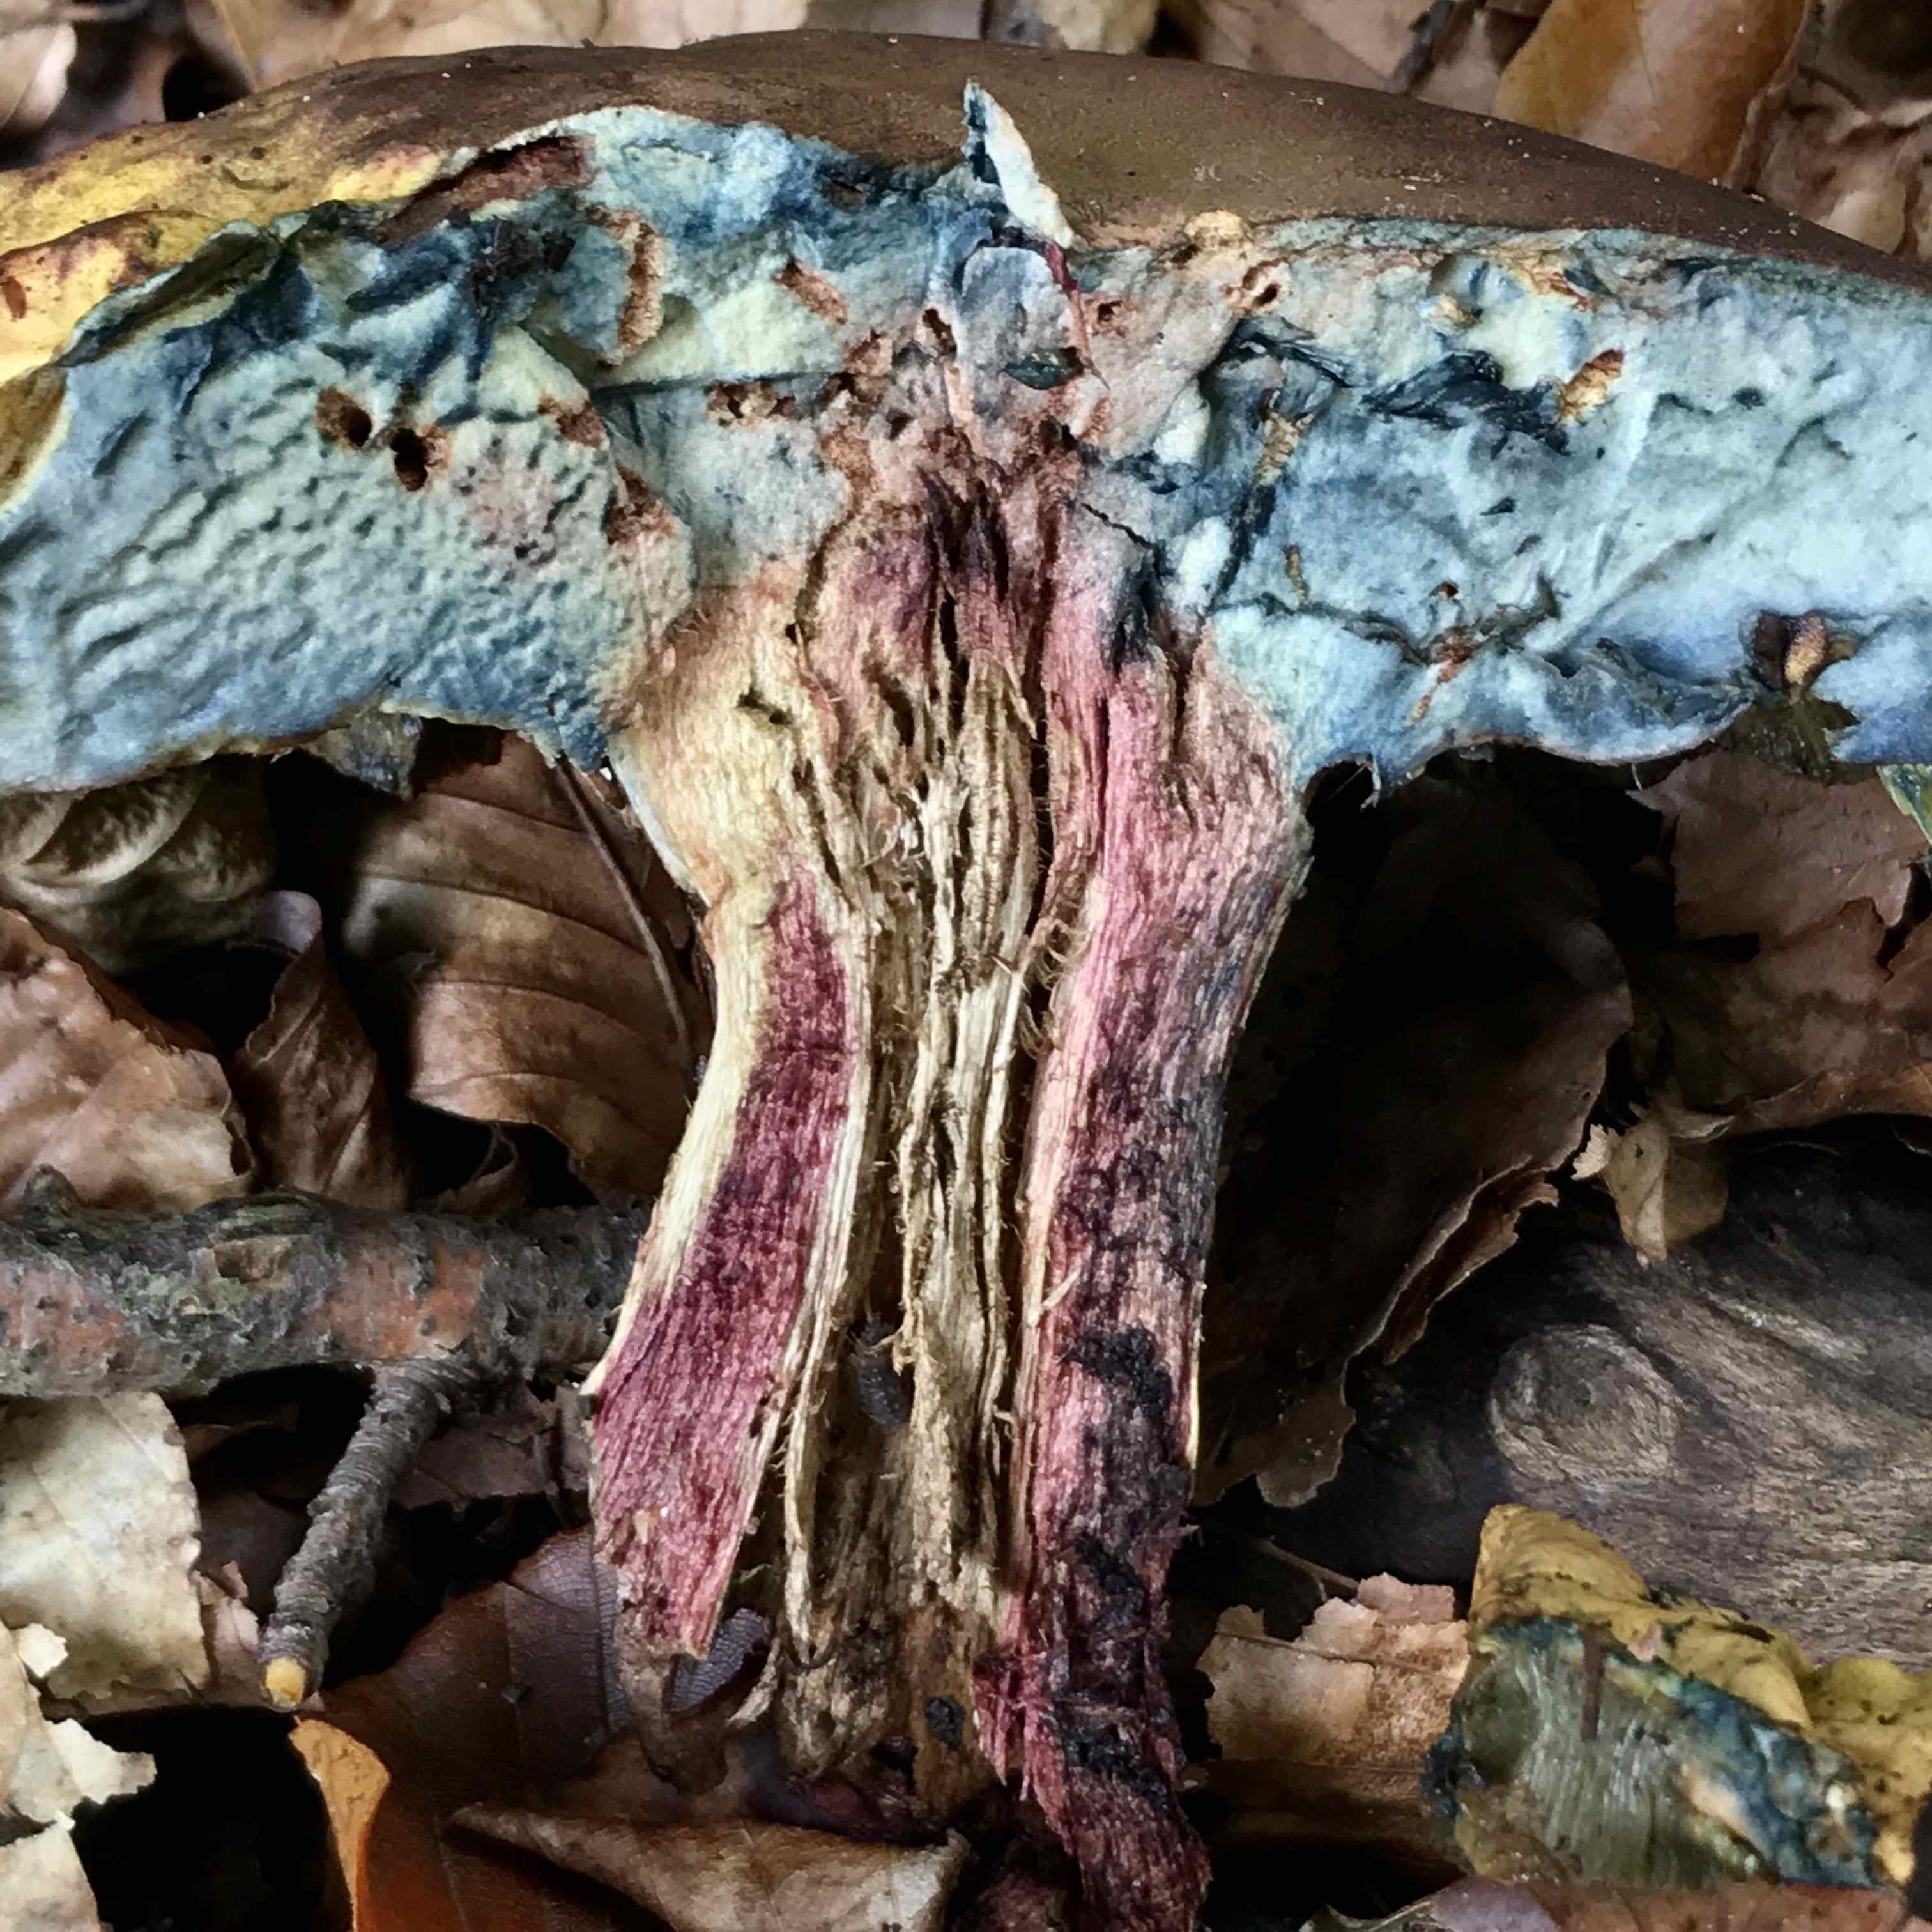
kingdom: Fungi
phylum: Basidiomycota
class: Agaricomycetes
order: Boletales
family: Boletaceae
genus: Suillellus
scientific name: Suillellus luridus
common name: netstokket indigorørhat
